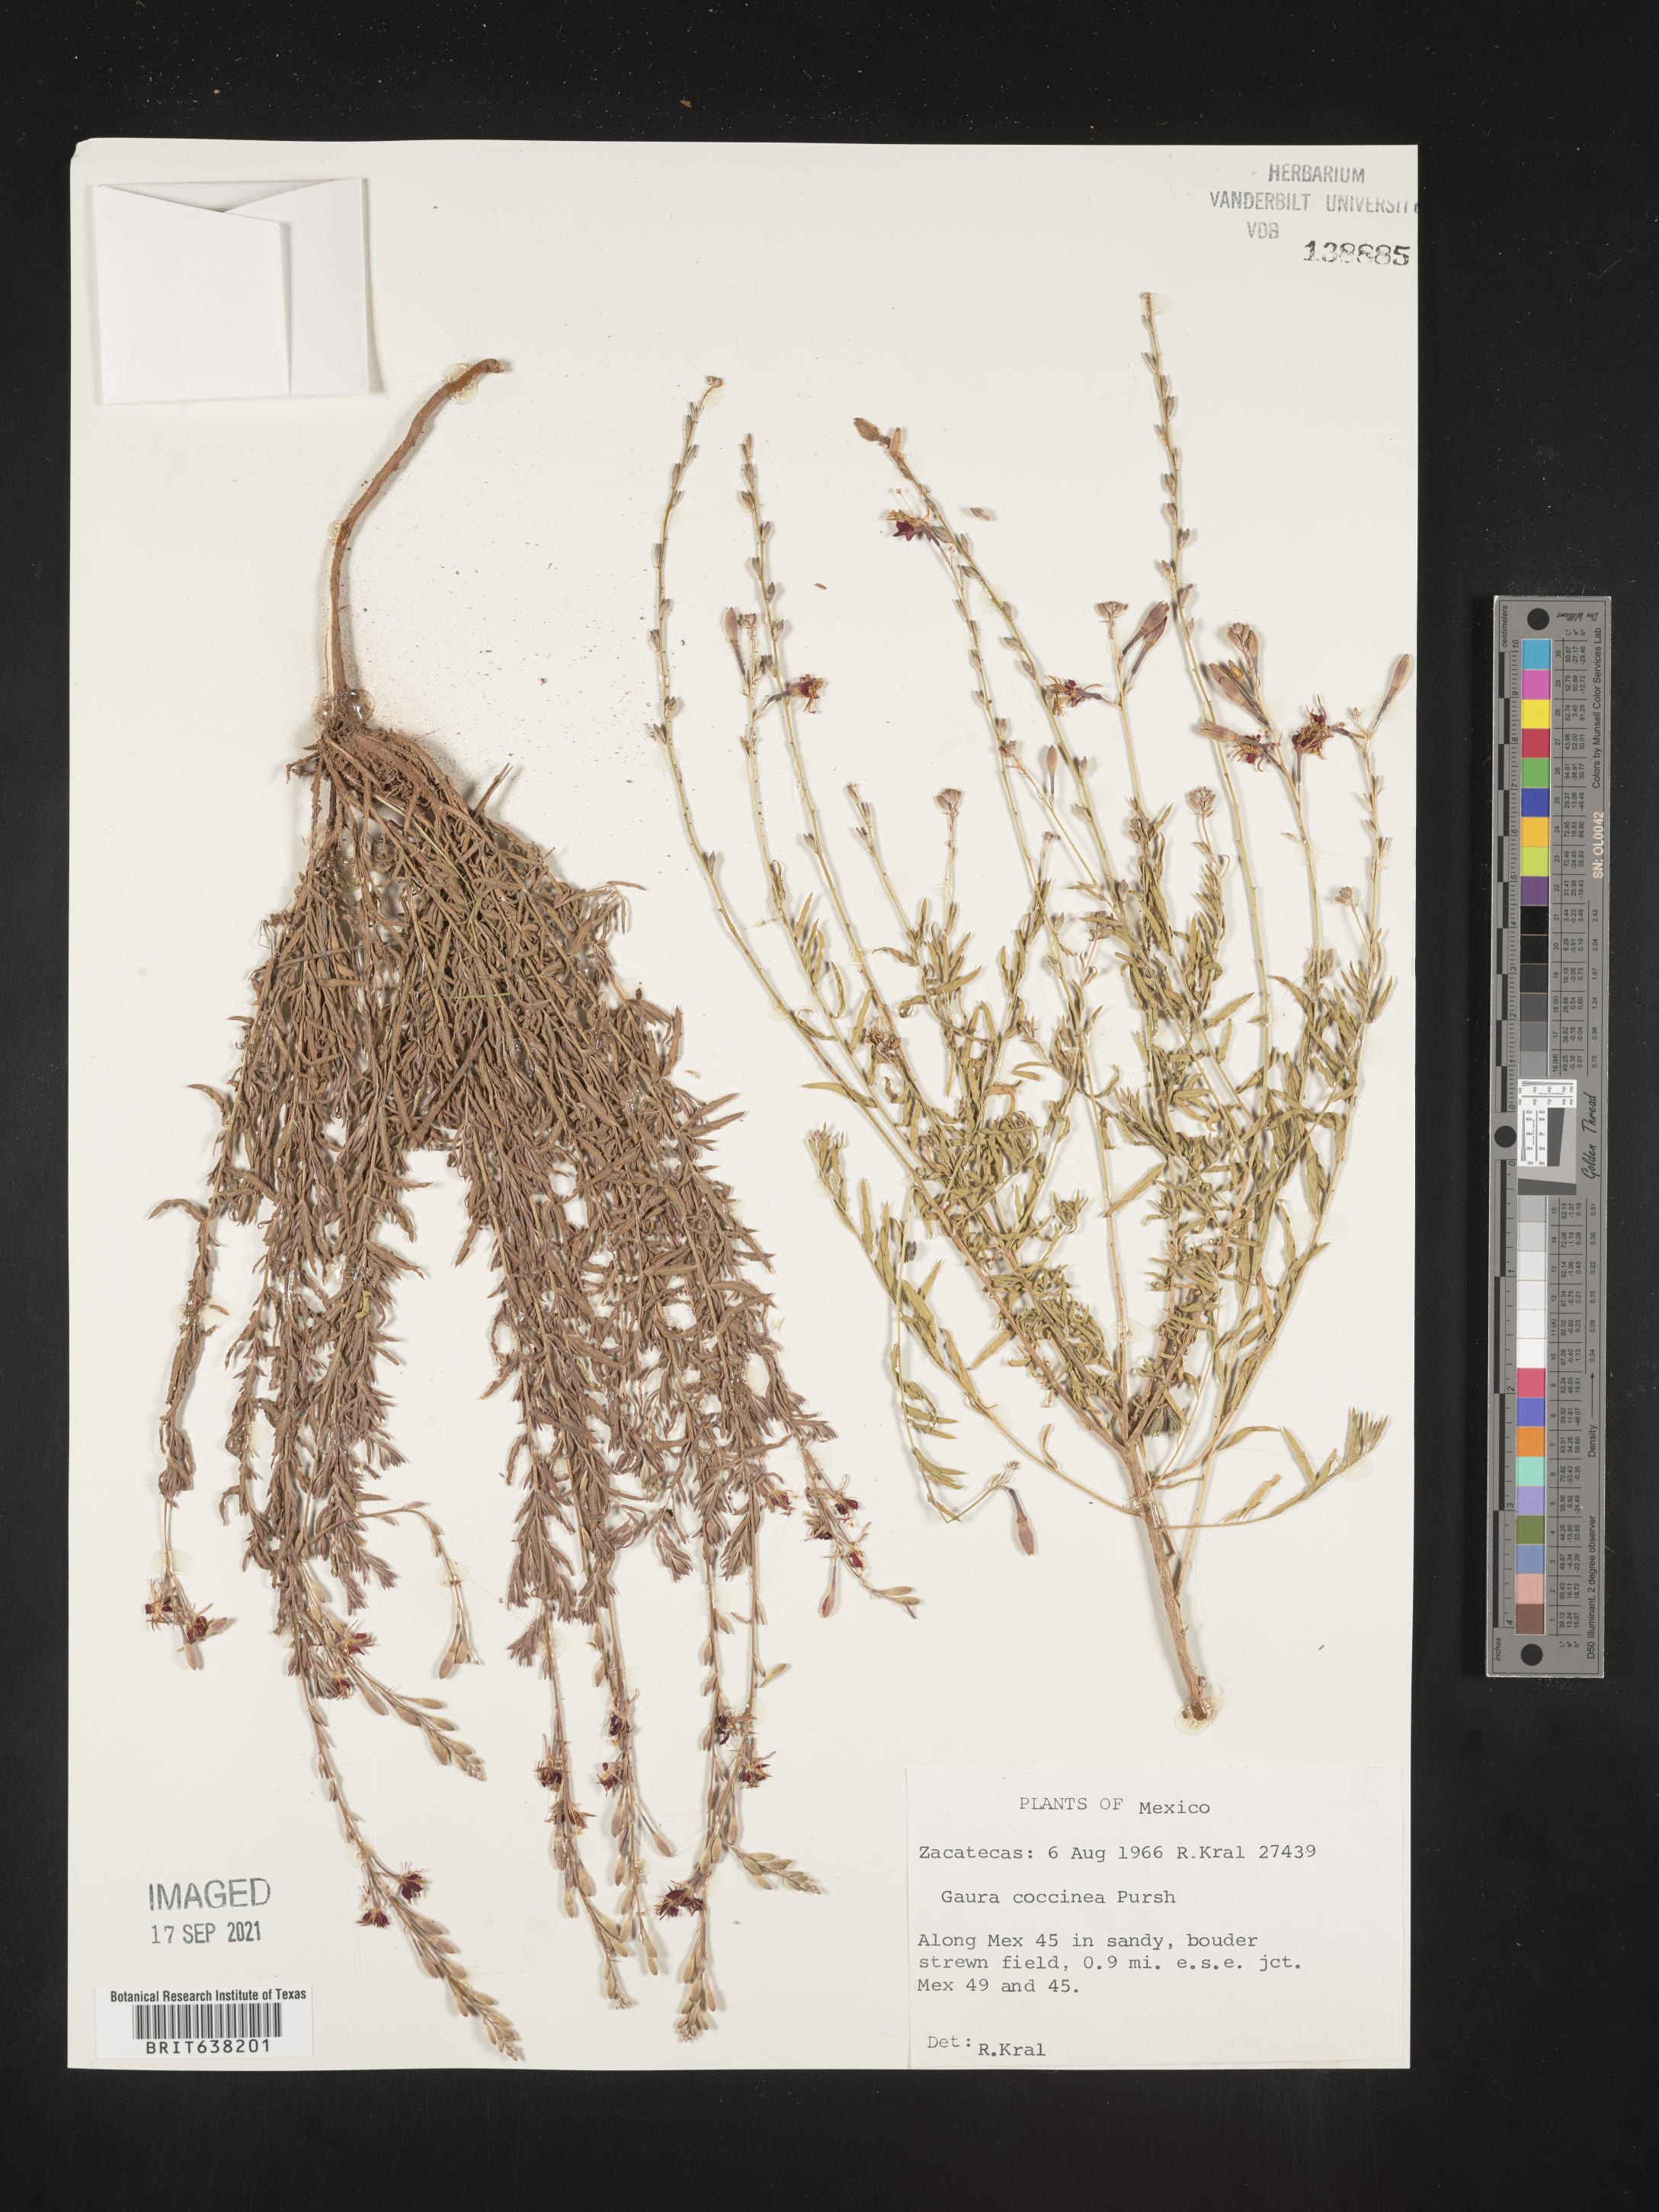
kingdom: Plantae
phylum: Tracheophyta
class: Magnoliopsida
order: Myrtales
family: Onagraceae
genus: Oenothera
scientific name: Oenothera
